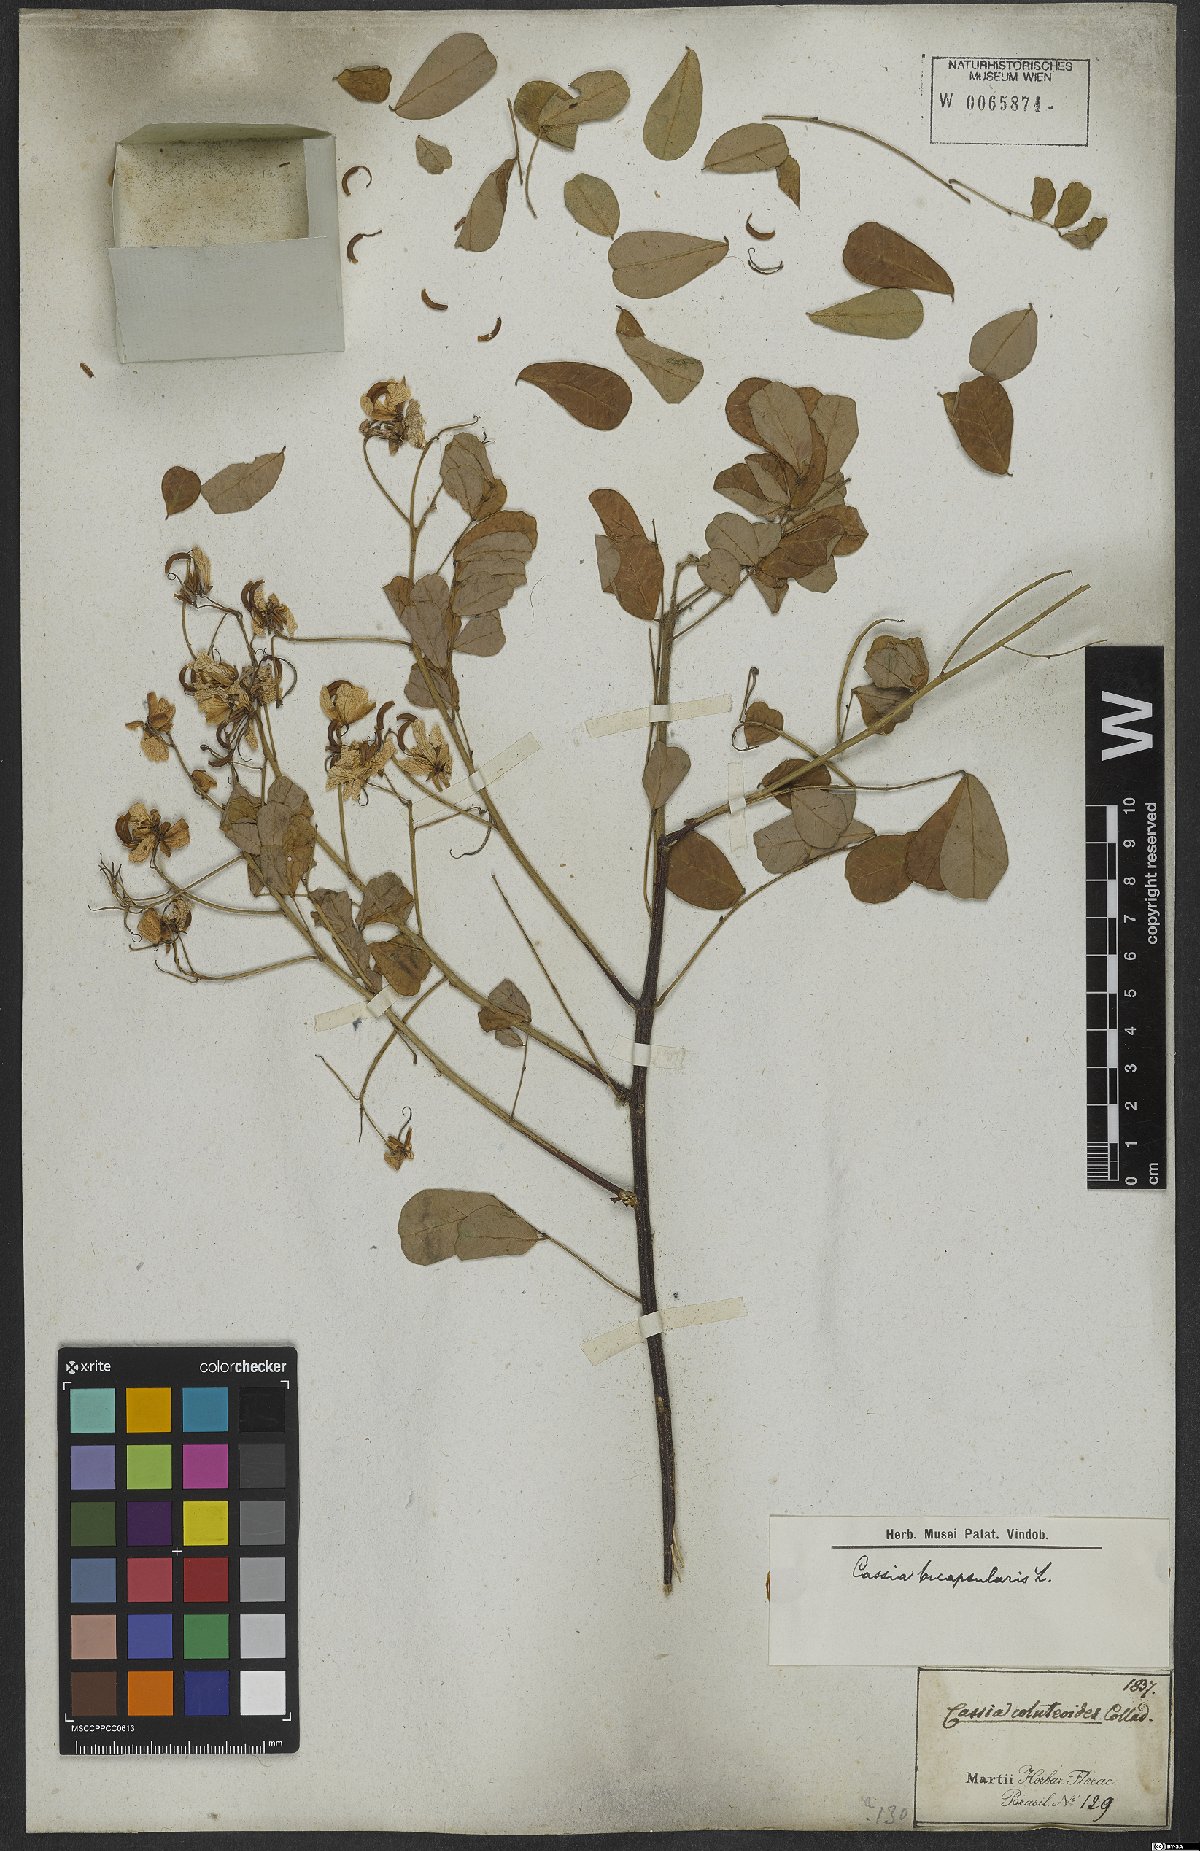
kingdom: Plantae
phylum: Tracheophyta
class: Magnoliopsida
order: Fabales
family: Fabaceae
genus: Senna
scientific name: Senna bicapsularis
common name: Christmasbush
